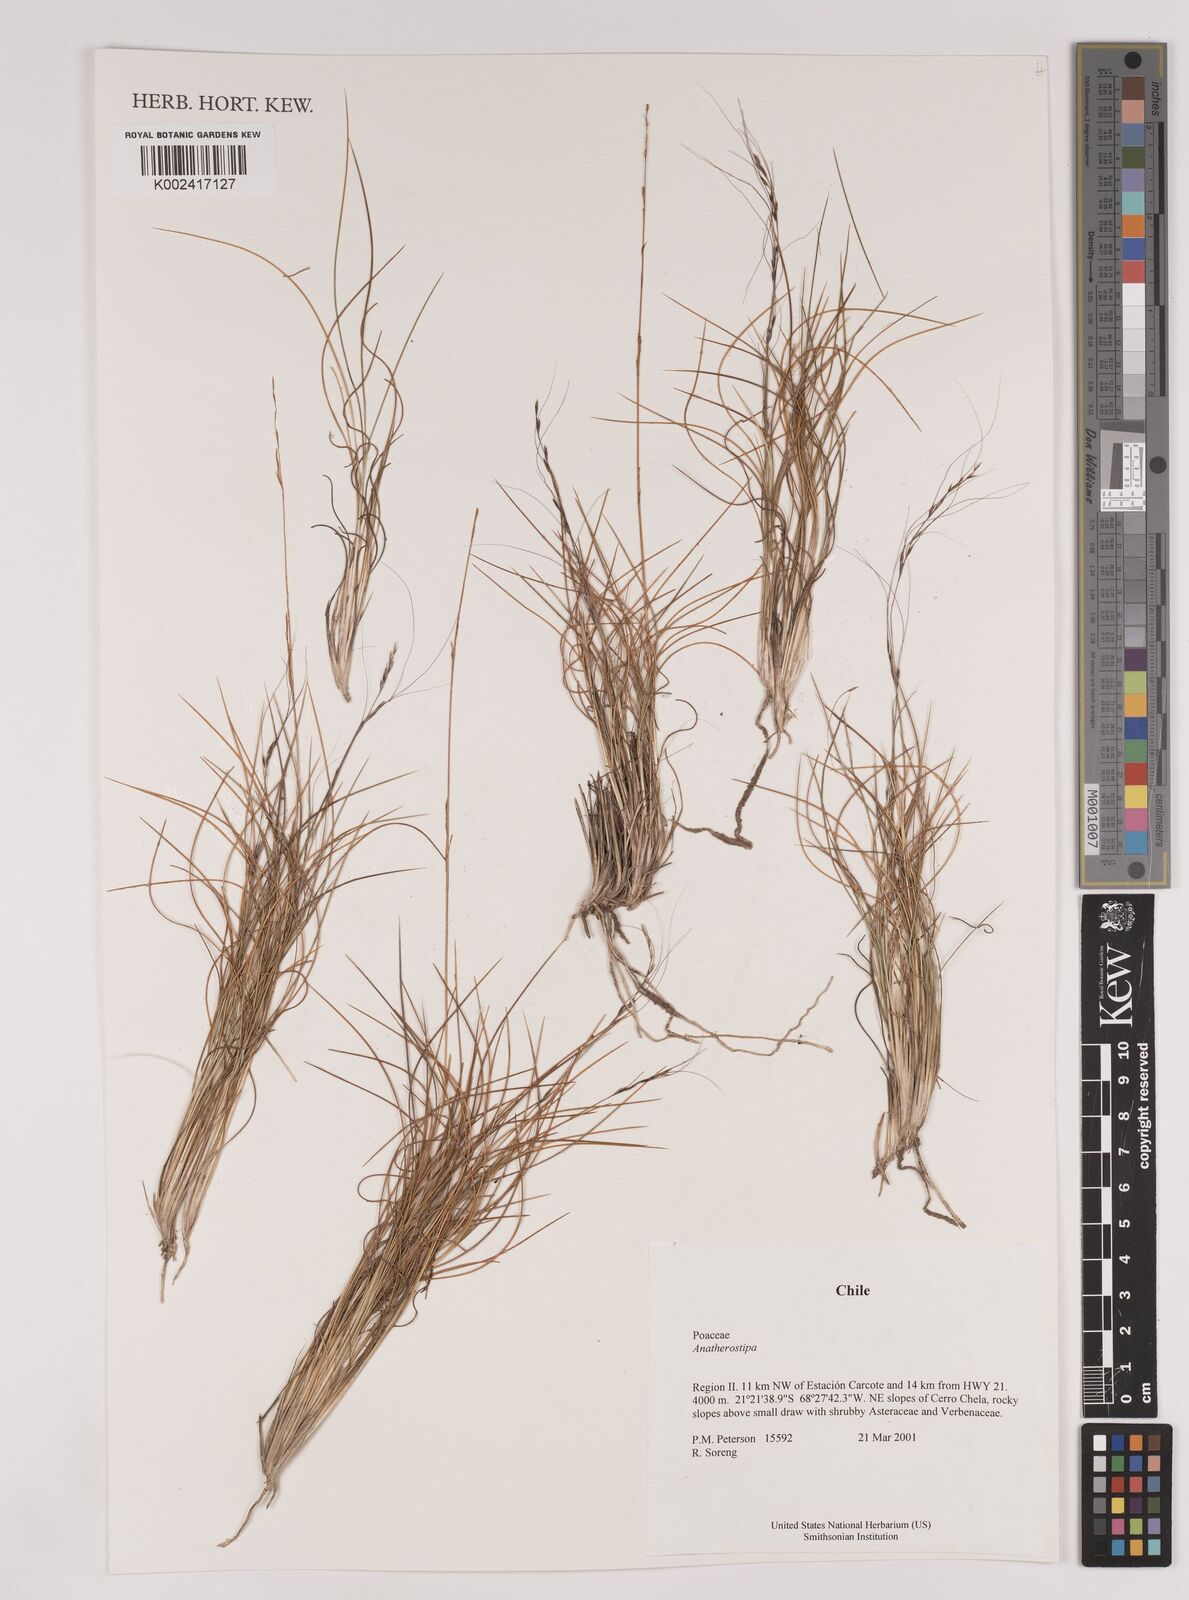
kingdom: Plantae
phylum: Tracheophyta
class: Liliopsida
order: Poales
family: Poaceae
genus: Stipa
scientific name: Stipa
